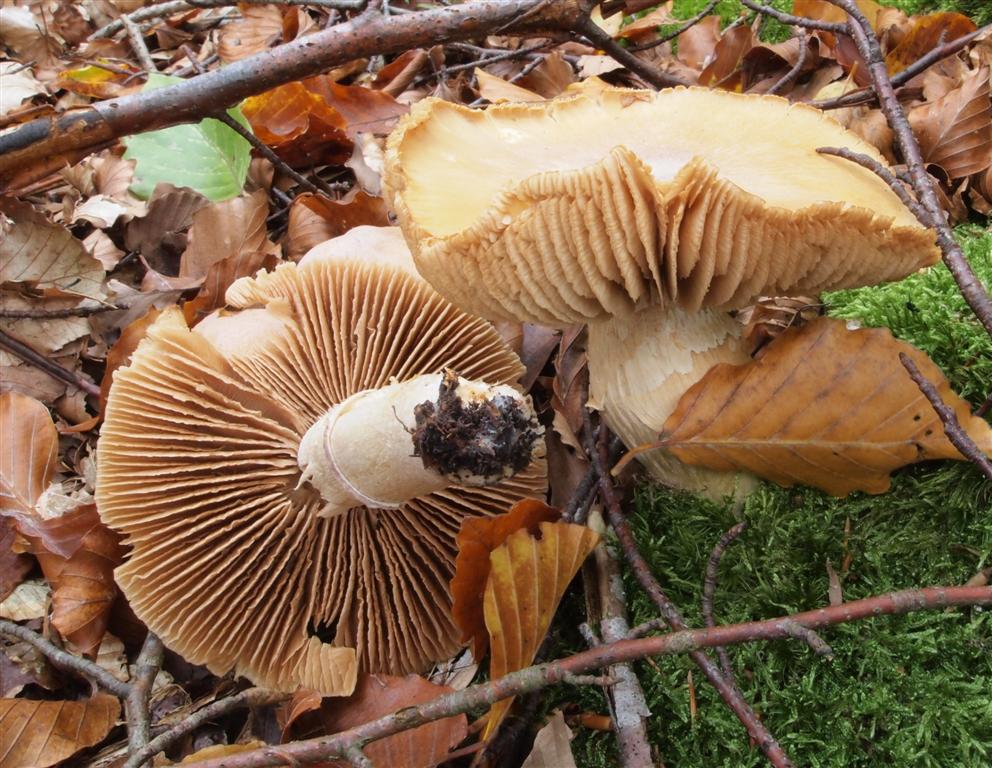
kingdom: Fungi
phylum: Basidiomycota
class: Agaricomycetes
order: Agaricales
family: Cortinariaceae
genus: Cortinarius
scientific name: Cortinarius caperatus
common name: klidhat
